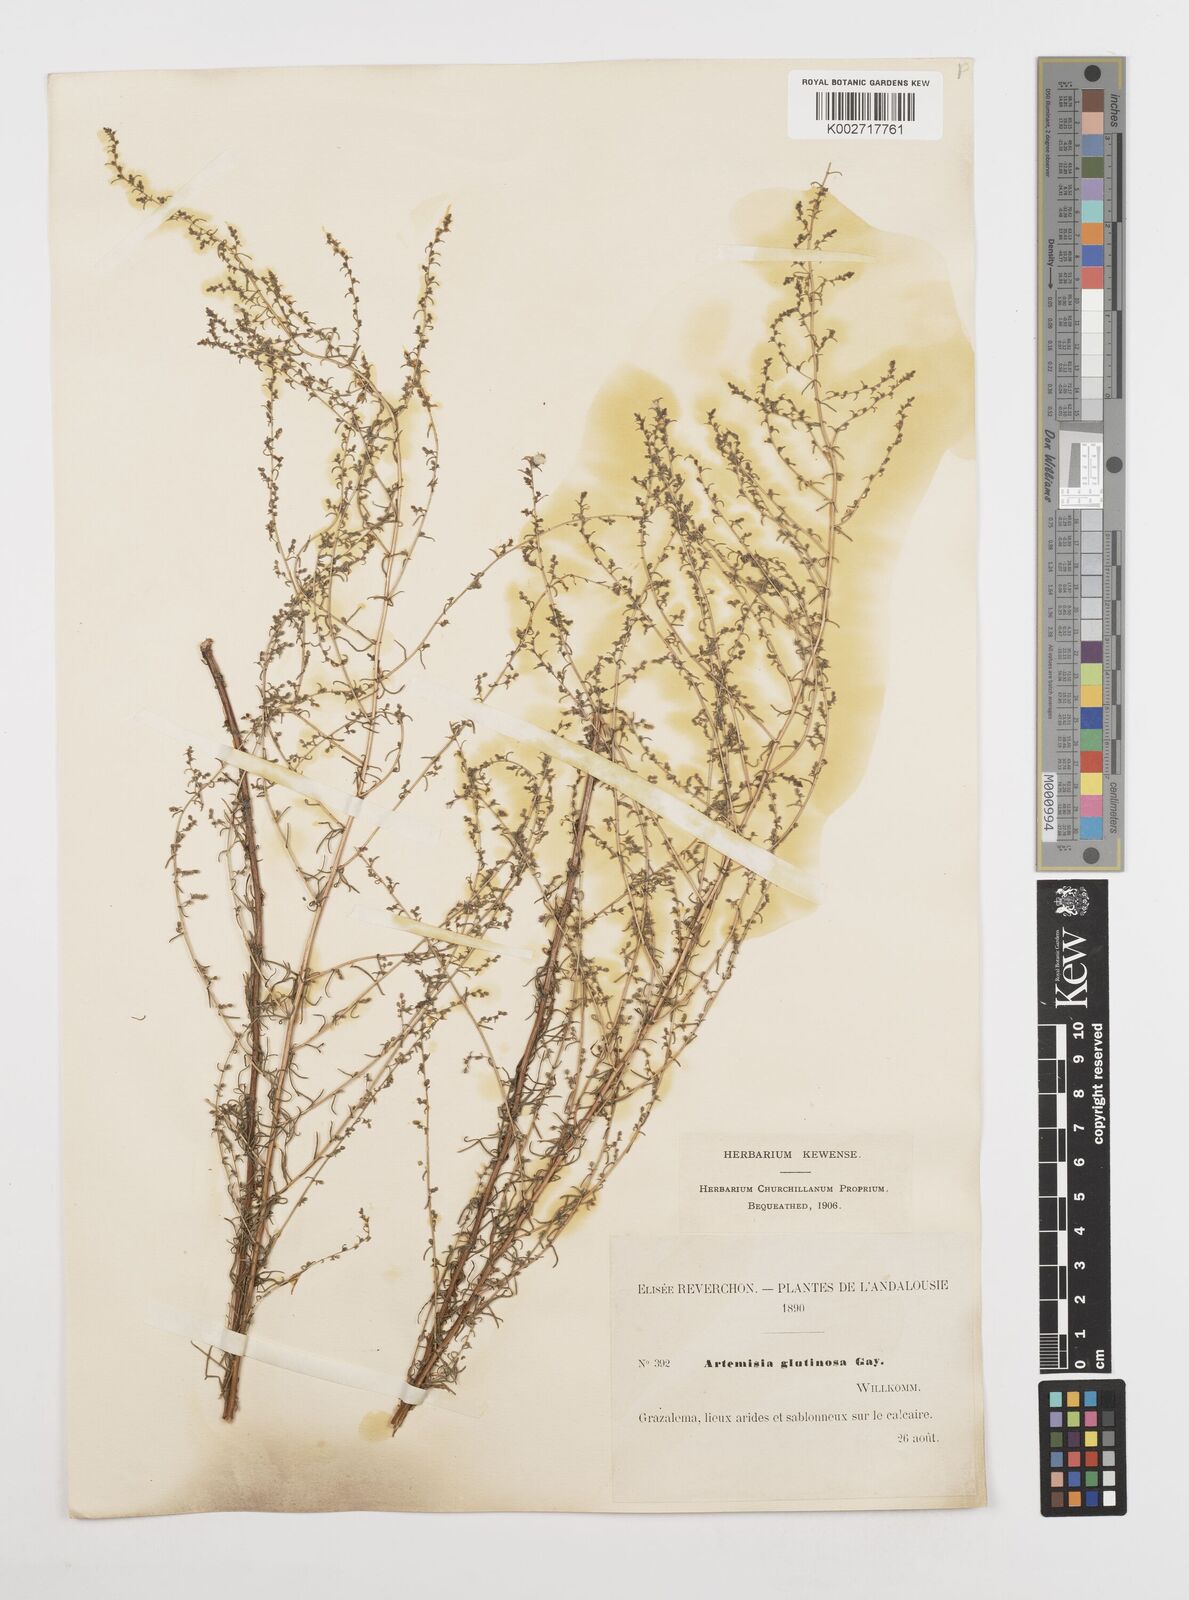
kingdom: Plantae
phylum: Tracheophyta
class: Magnoliopsida
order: Asterales
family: Asteraceae
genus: Artemisia
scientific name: Artemisia campestris
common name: Field wormwood
